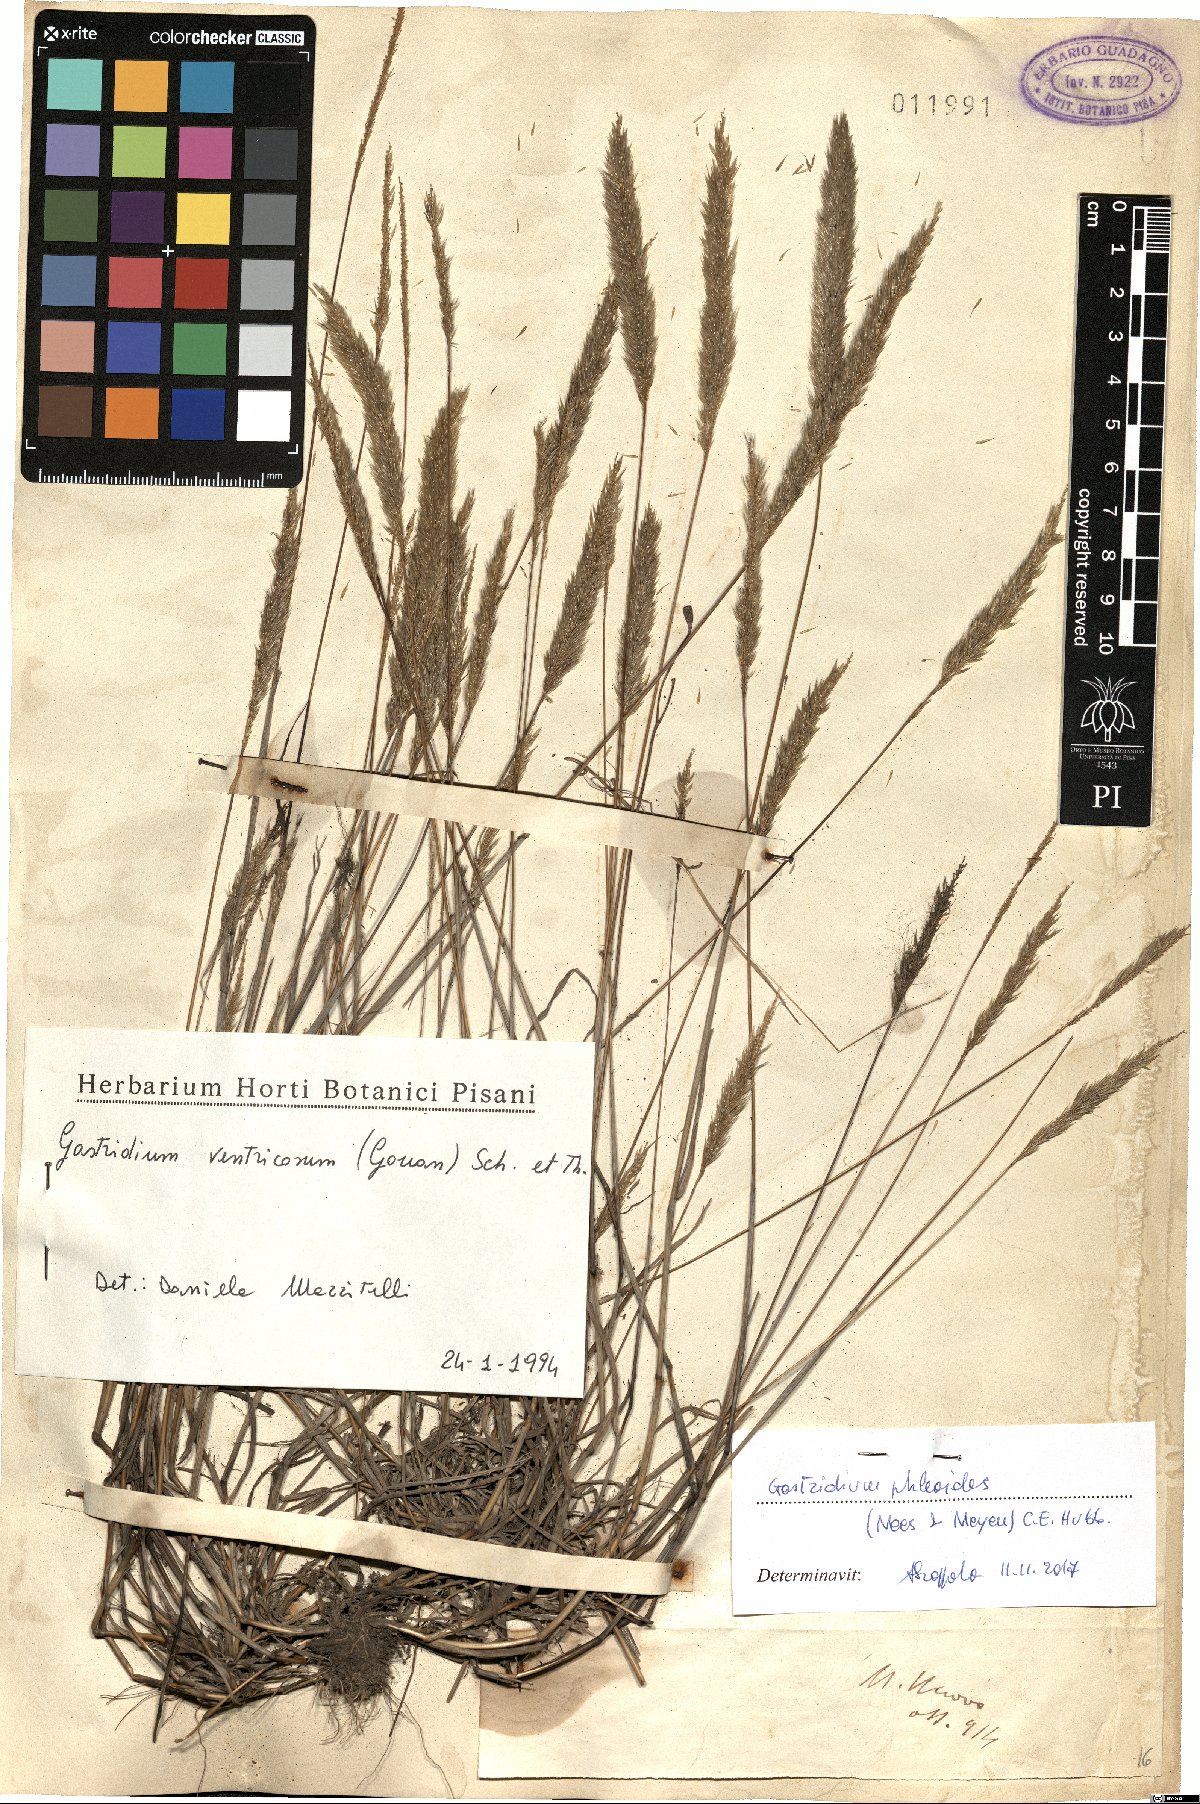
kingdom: Plantae
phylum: Tracheophyta
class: Liliopsida
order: Poales
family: Poaceae
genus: Gastridium
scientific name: Gastridium phleoides
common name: Nit grass
